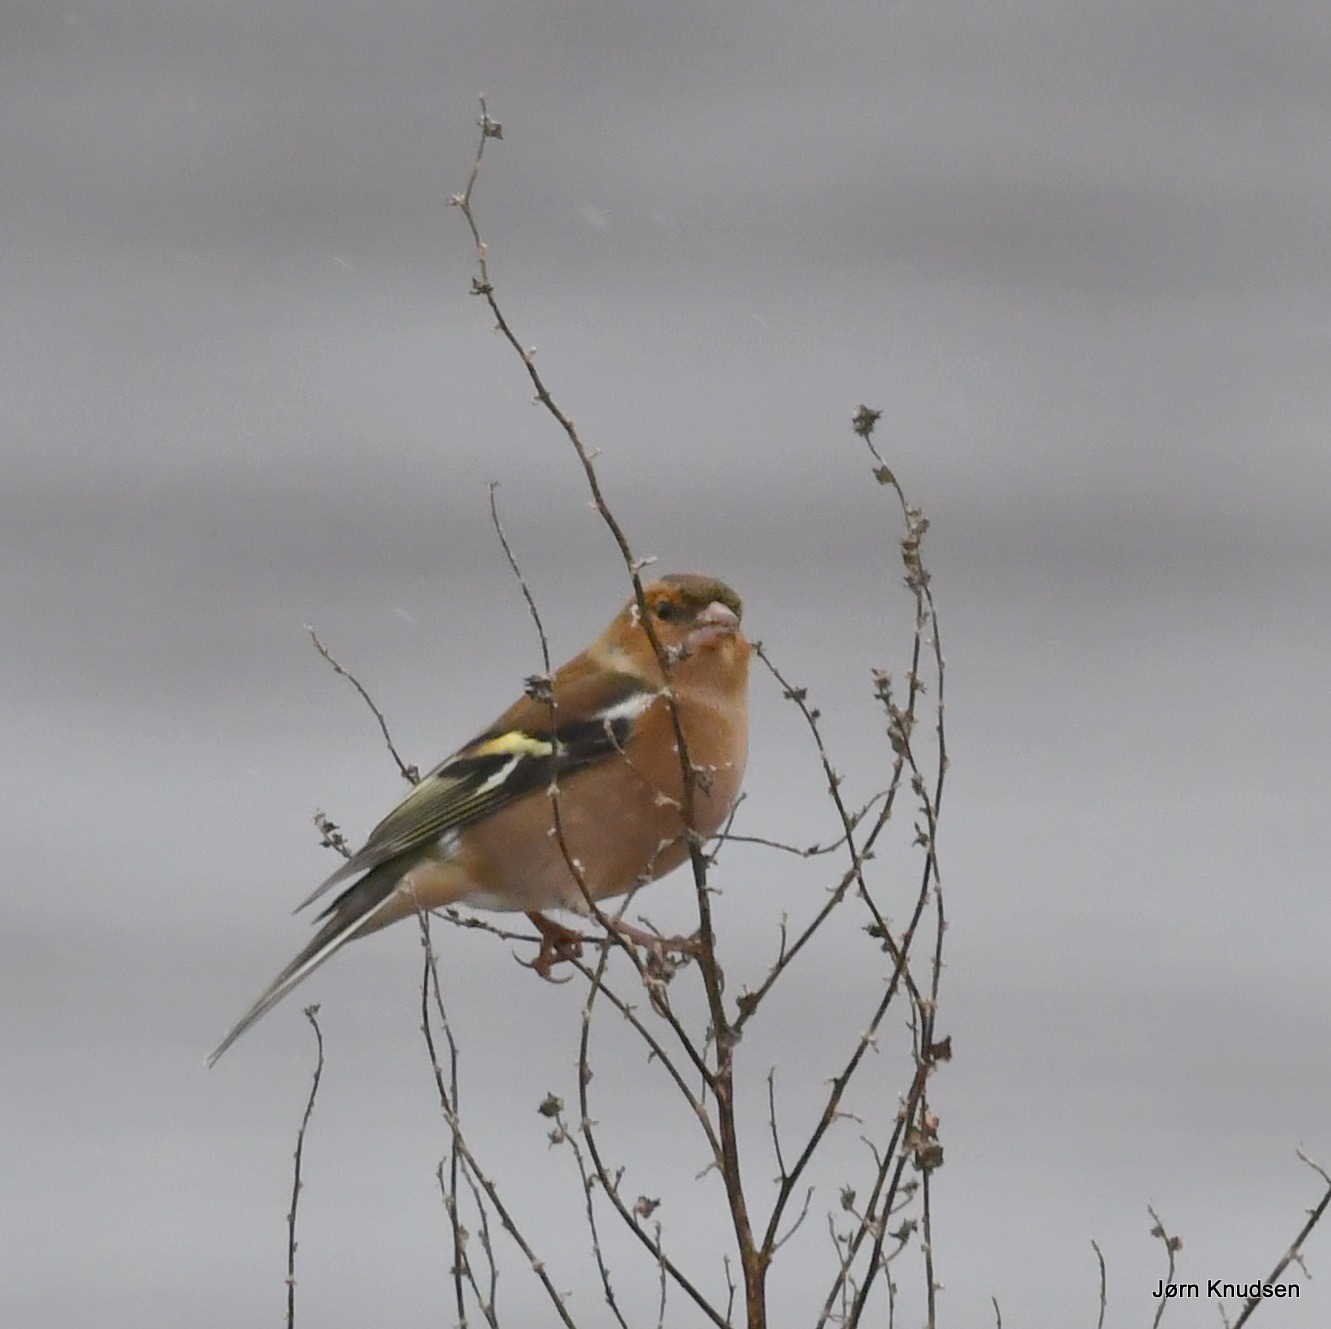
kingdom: Animalia
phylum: Chordata
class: Aves
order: Passeriformes
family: Fringillidae
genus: Fringilla
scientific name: Fringilla coelebs
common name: Bogfinke
